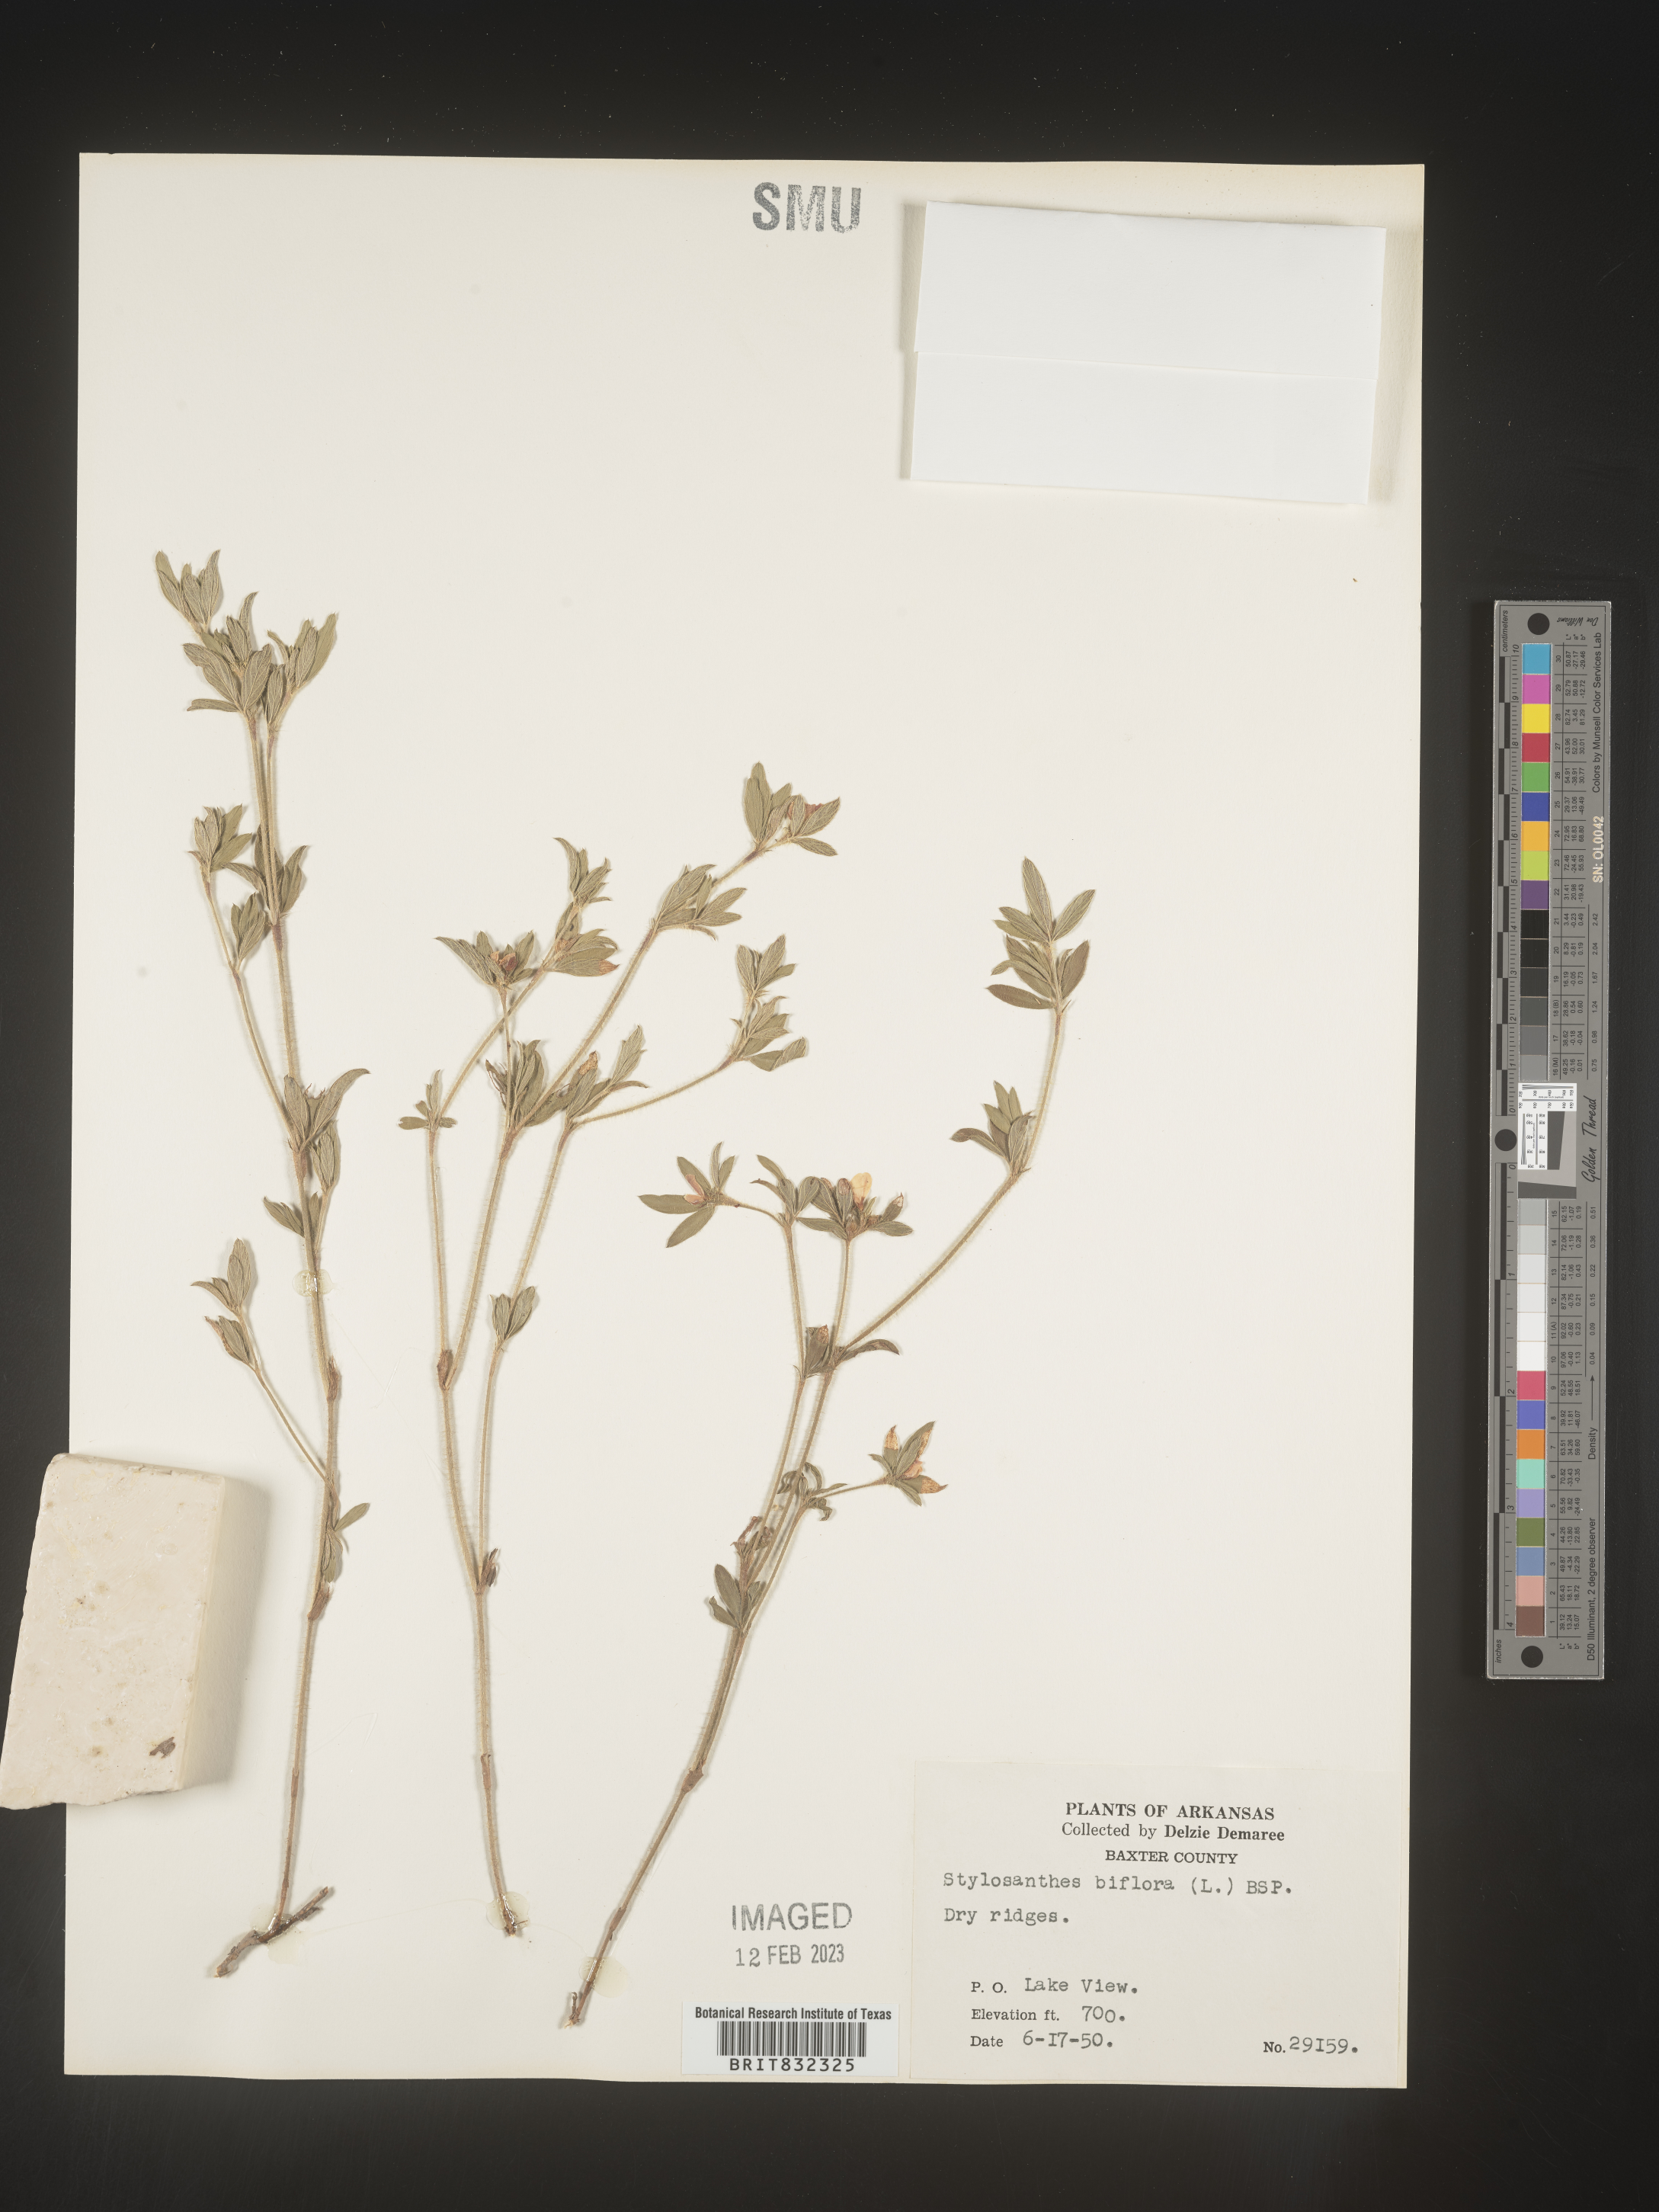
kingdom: Plantae
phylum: Tracheophyta
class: Magnoliopsida
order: Fabales
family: Fabaceae
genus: Stylosanthes
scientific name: Stylosanthes biflora
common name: Two-flower pencil-flower
